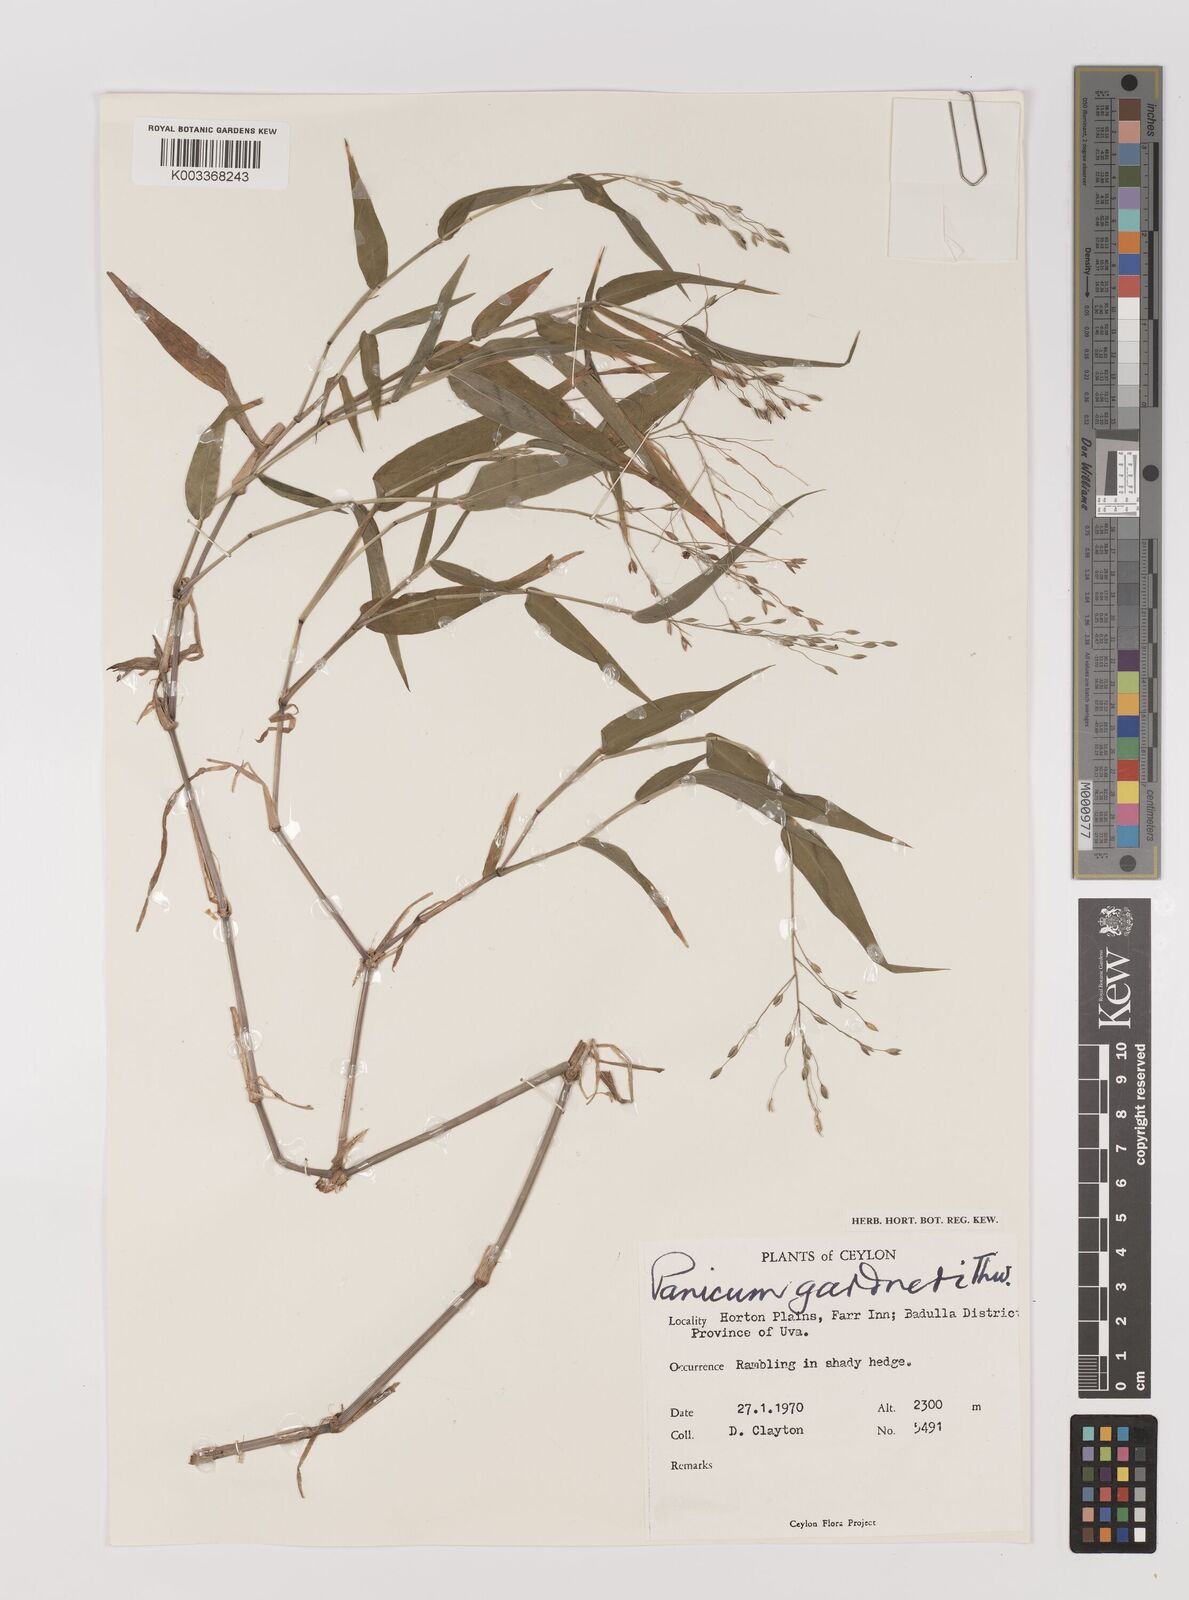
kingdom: Plantae
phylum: Tracheophyta
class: Liliopsida
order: Poales
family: Poaceae
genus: Panicum
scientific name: Panicum gardneri
